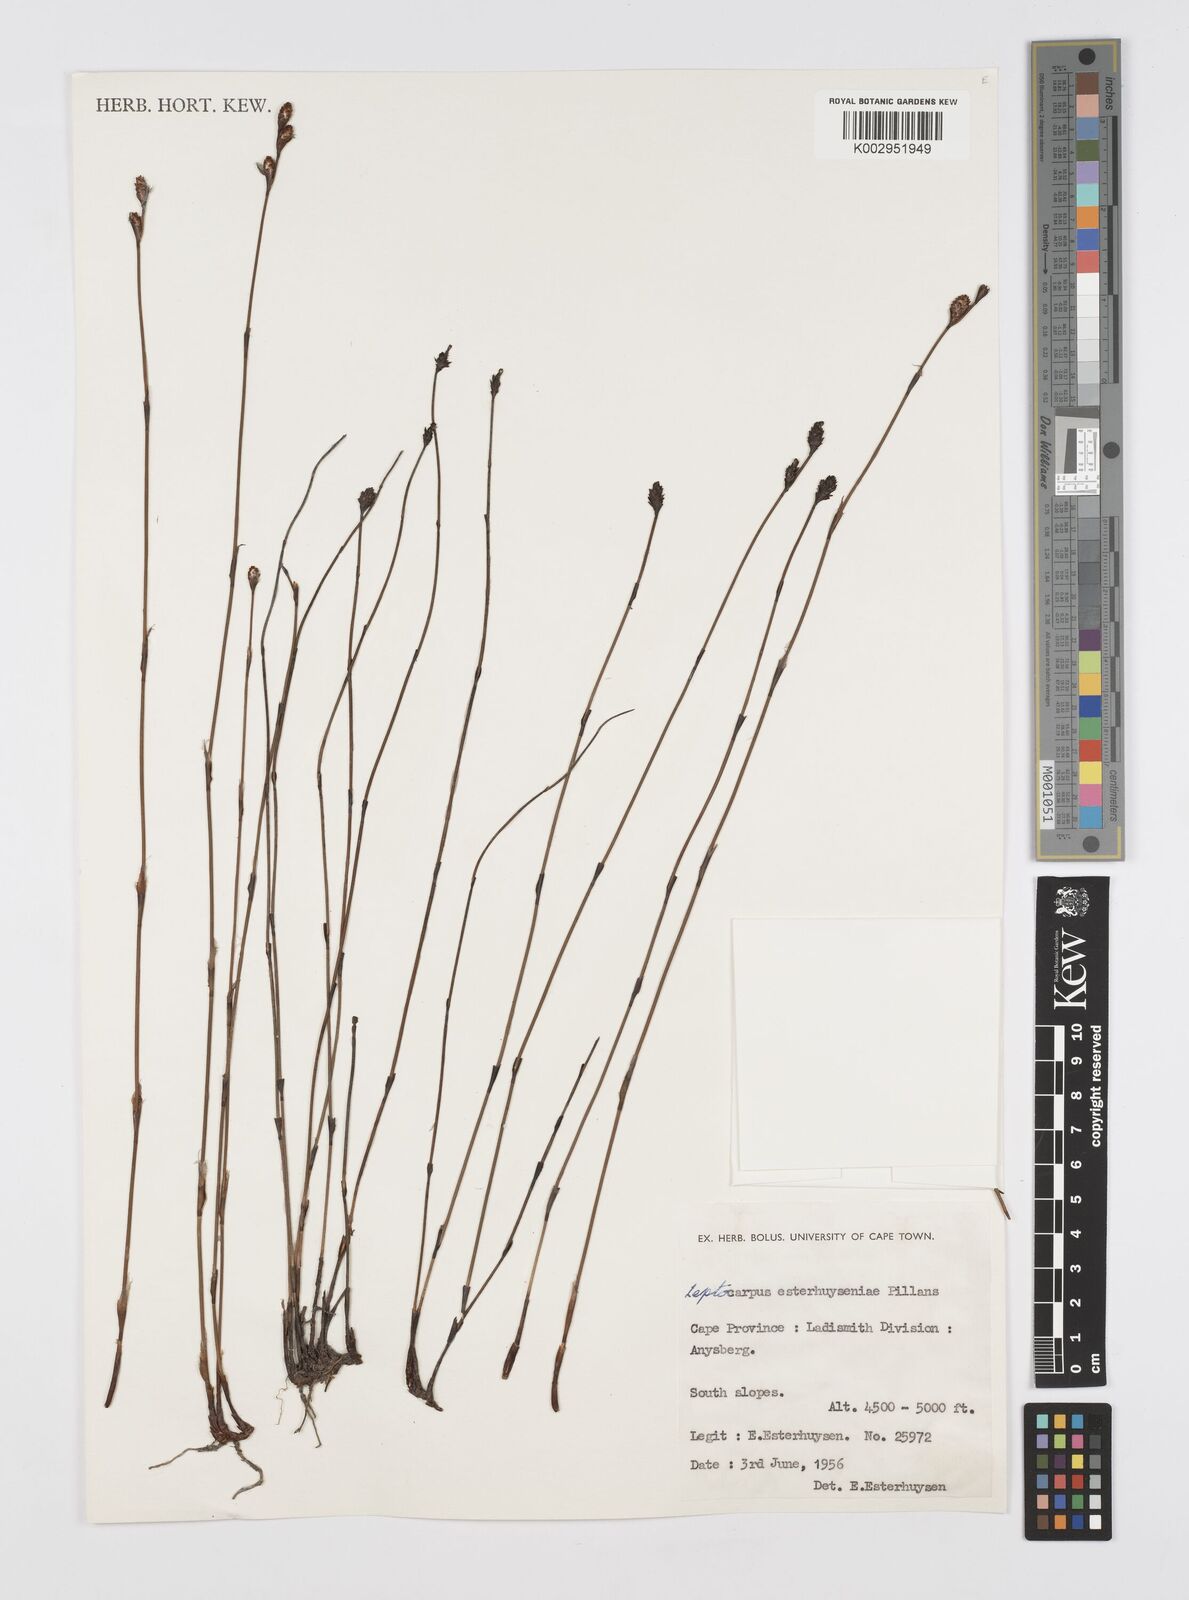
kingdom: Plantae
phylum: Tracheophyta
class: Liliopsida
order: Poales
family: Restionaceae
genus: Restio
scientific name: Restio esterhuyseniae
